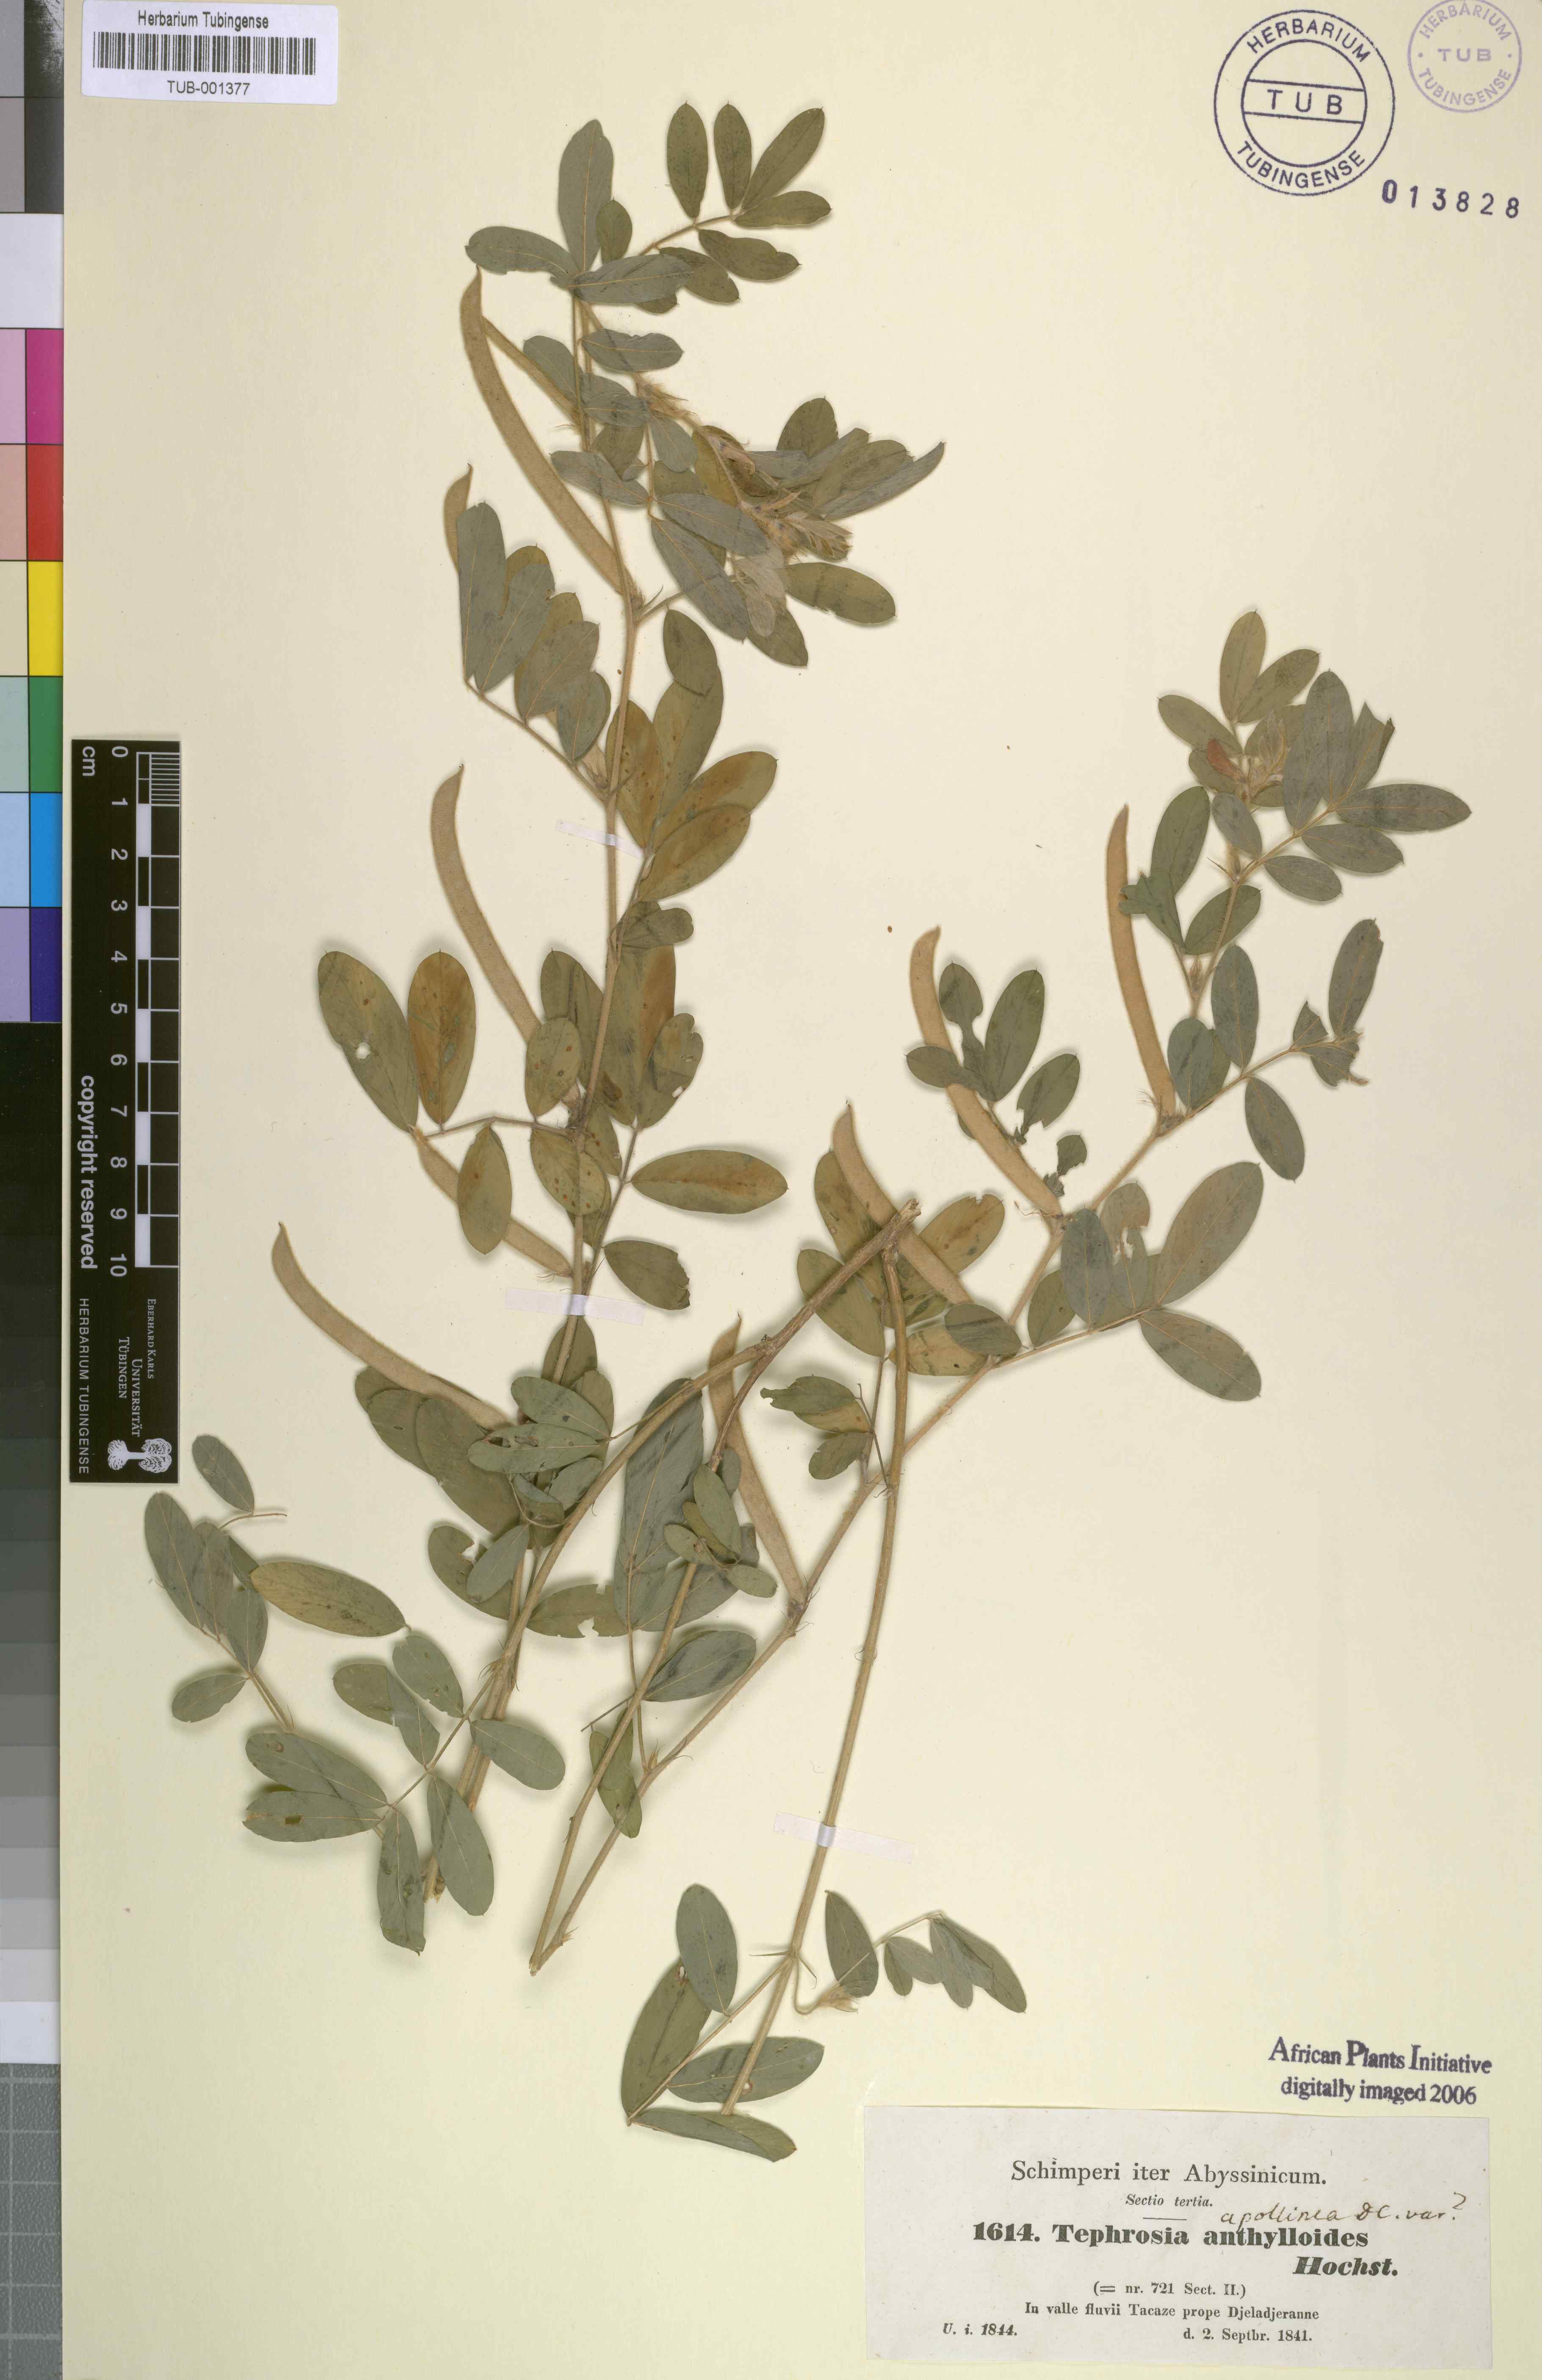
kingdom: Plantae
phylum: Tracheophyta
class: Magnoliopsida
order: Fabales
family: Fabaceae
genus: Tephrosia
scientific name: Tephrosia uniflora
